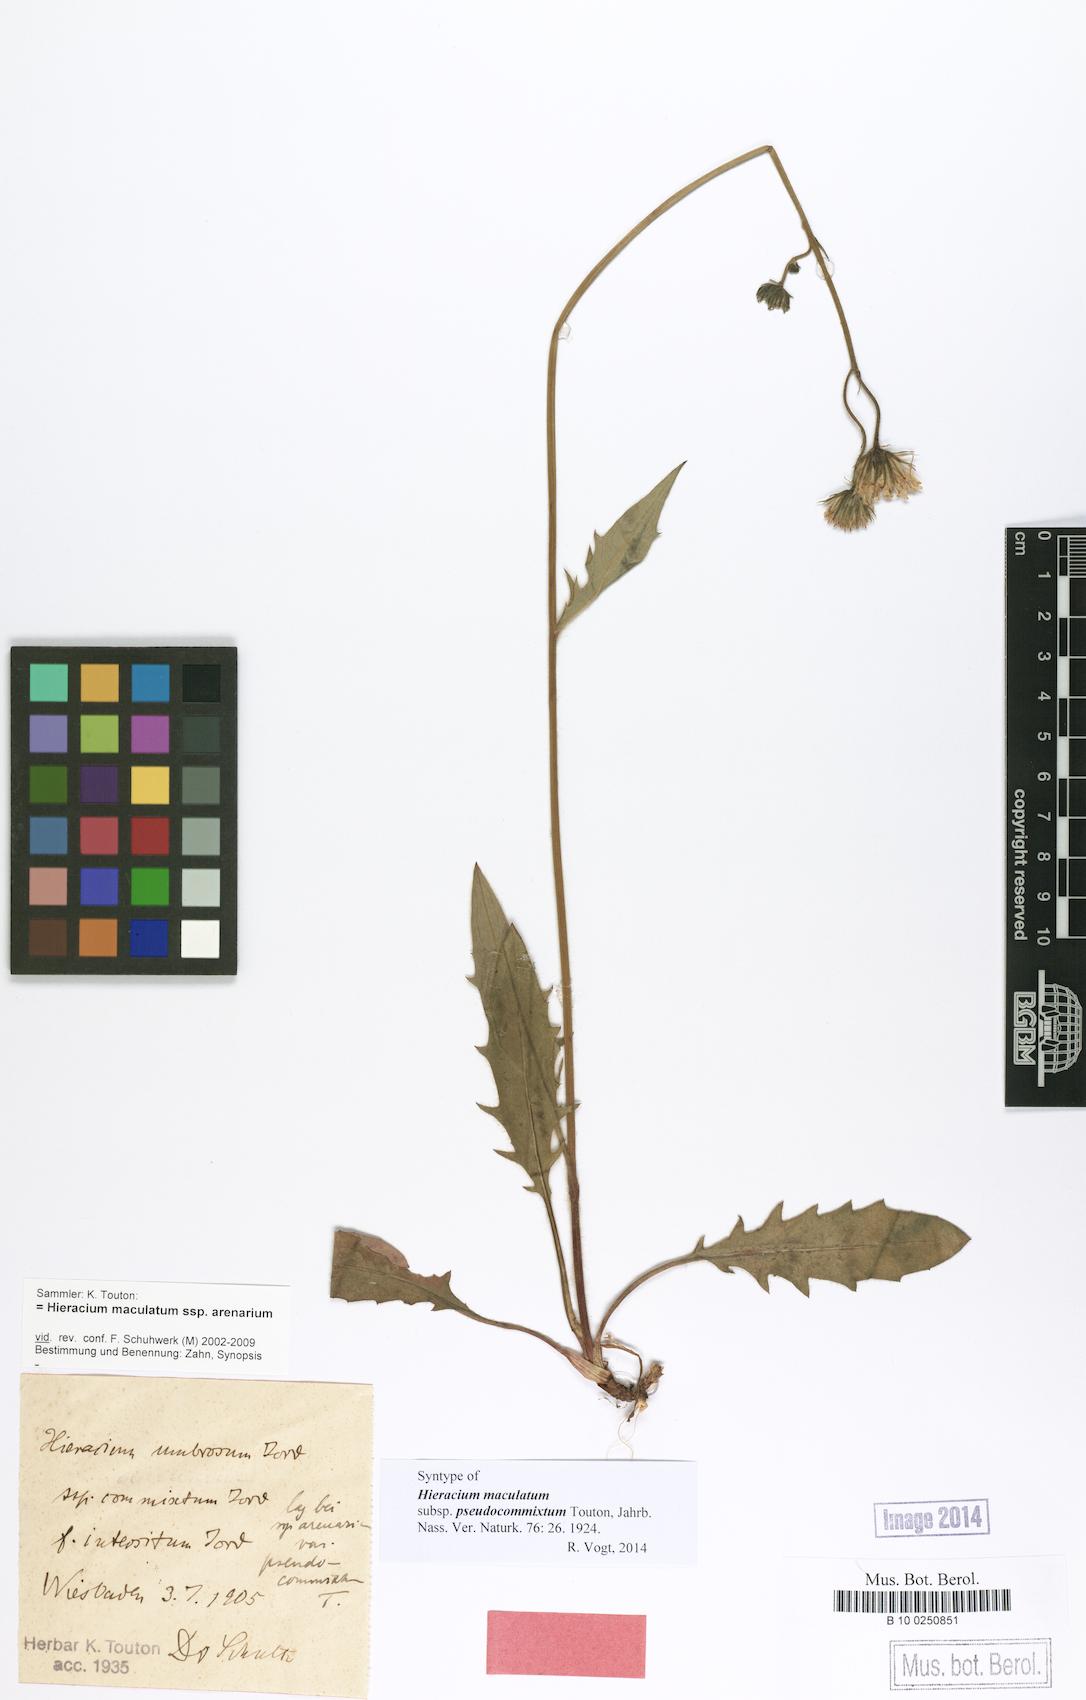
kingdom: Plantae
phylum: Tracheophyta
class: Magnoliopsida
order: Asterales
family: Asteraceae
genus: Hieracium
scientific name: Hieracium maculatum
